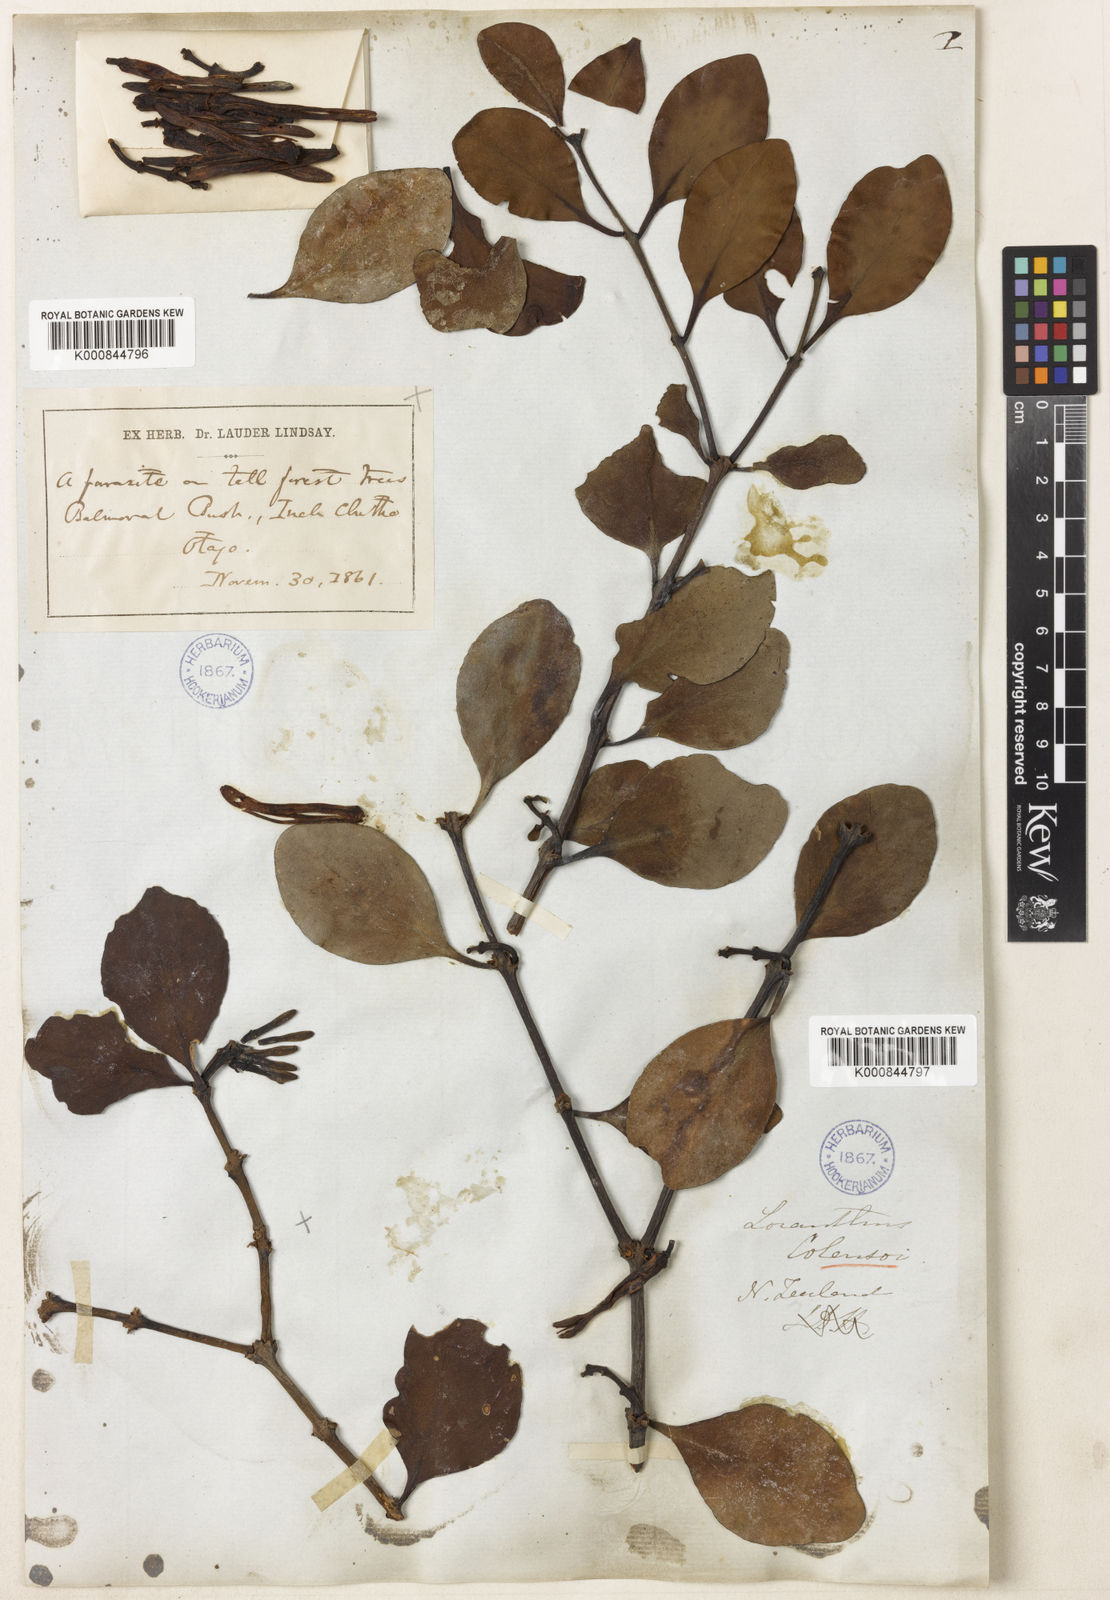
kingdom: Plantae
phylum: Tracheophyta
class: Magnoliopsida
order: Santalales
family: Loranthaceae
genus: Peraxilla
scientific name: Peraxilla colensoi
